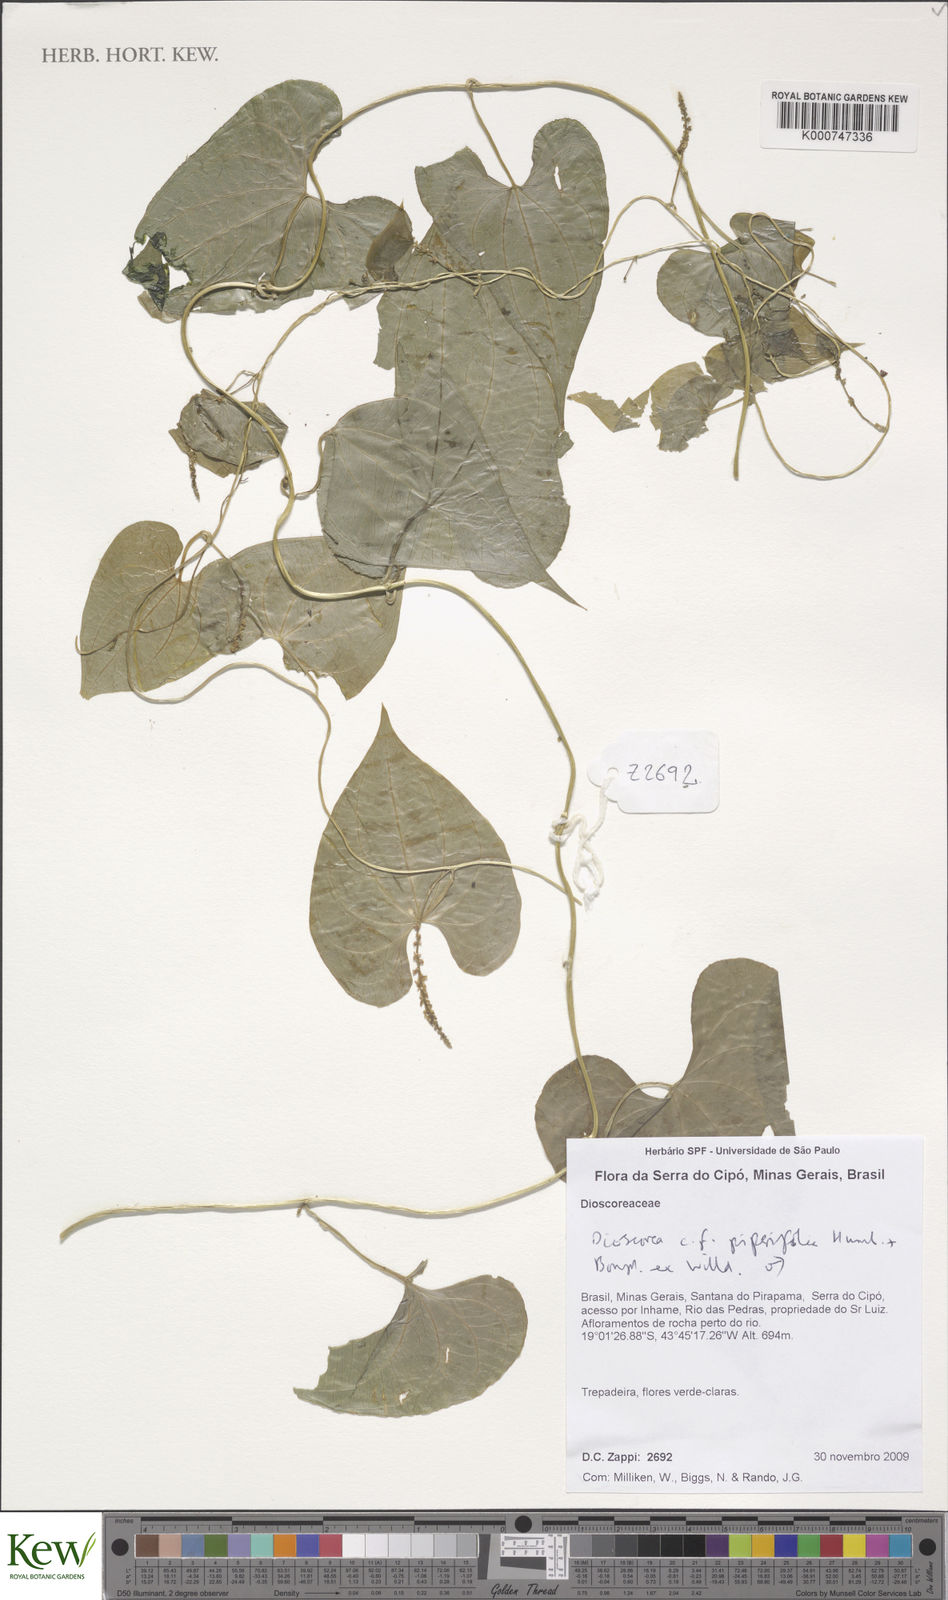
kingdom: Plantae
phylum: Tracheophyta
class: Liliopsida
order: Dioscoreales
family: Dioscoreaceae
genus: Dioscorea
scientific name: Dioscorea piperifolia
